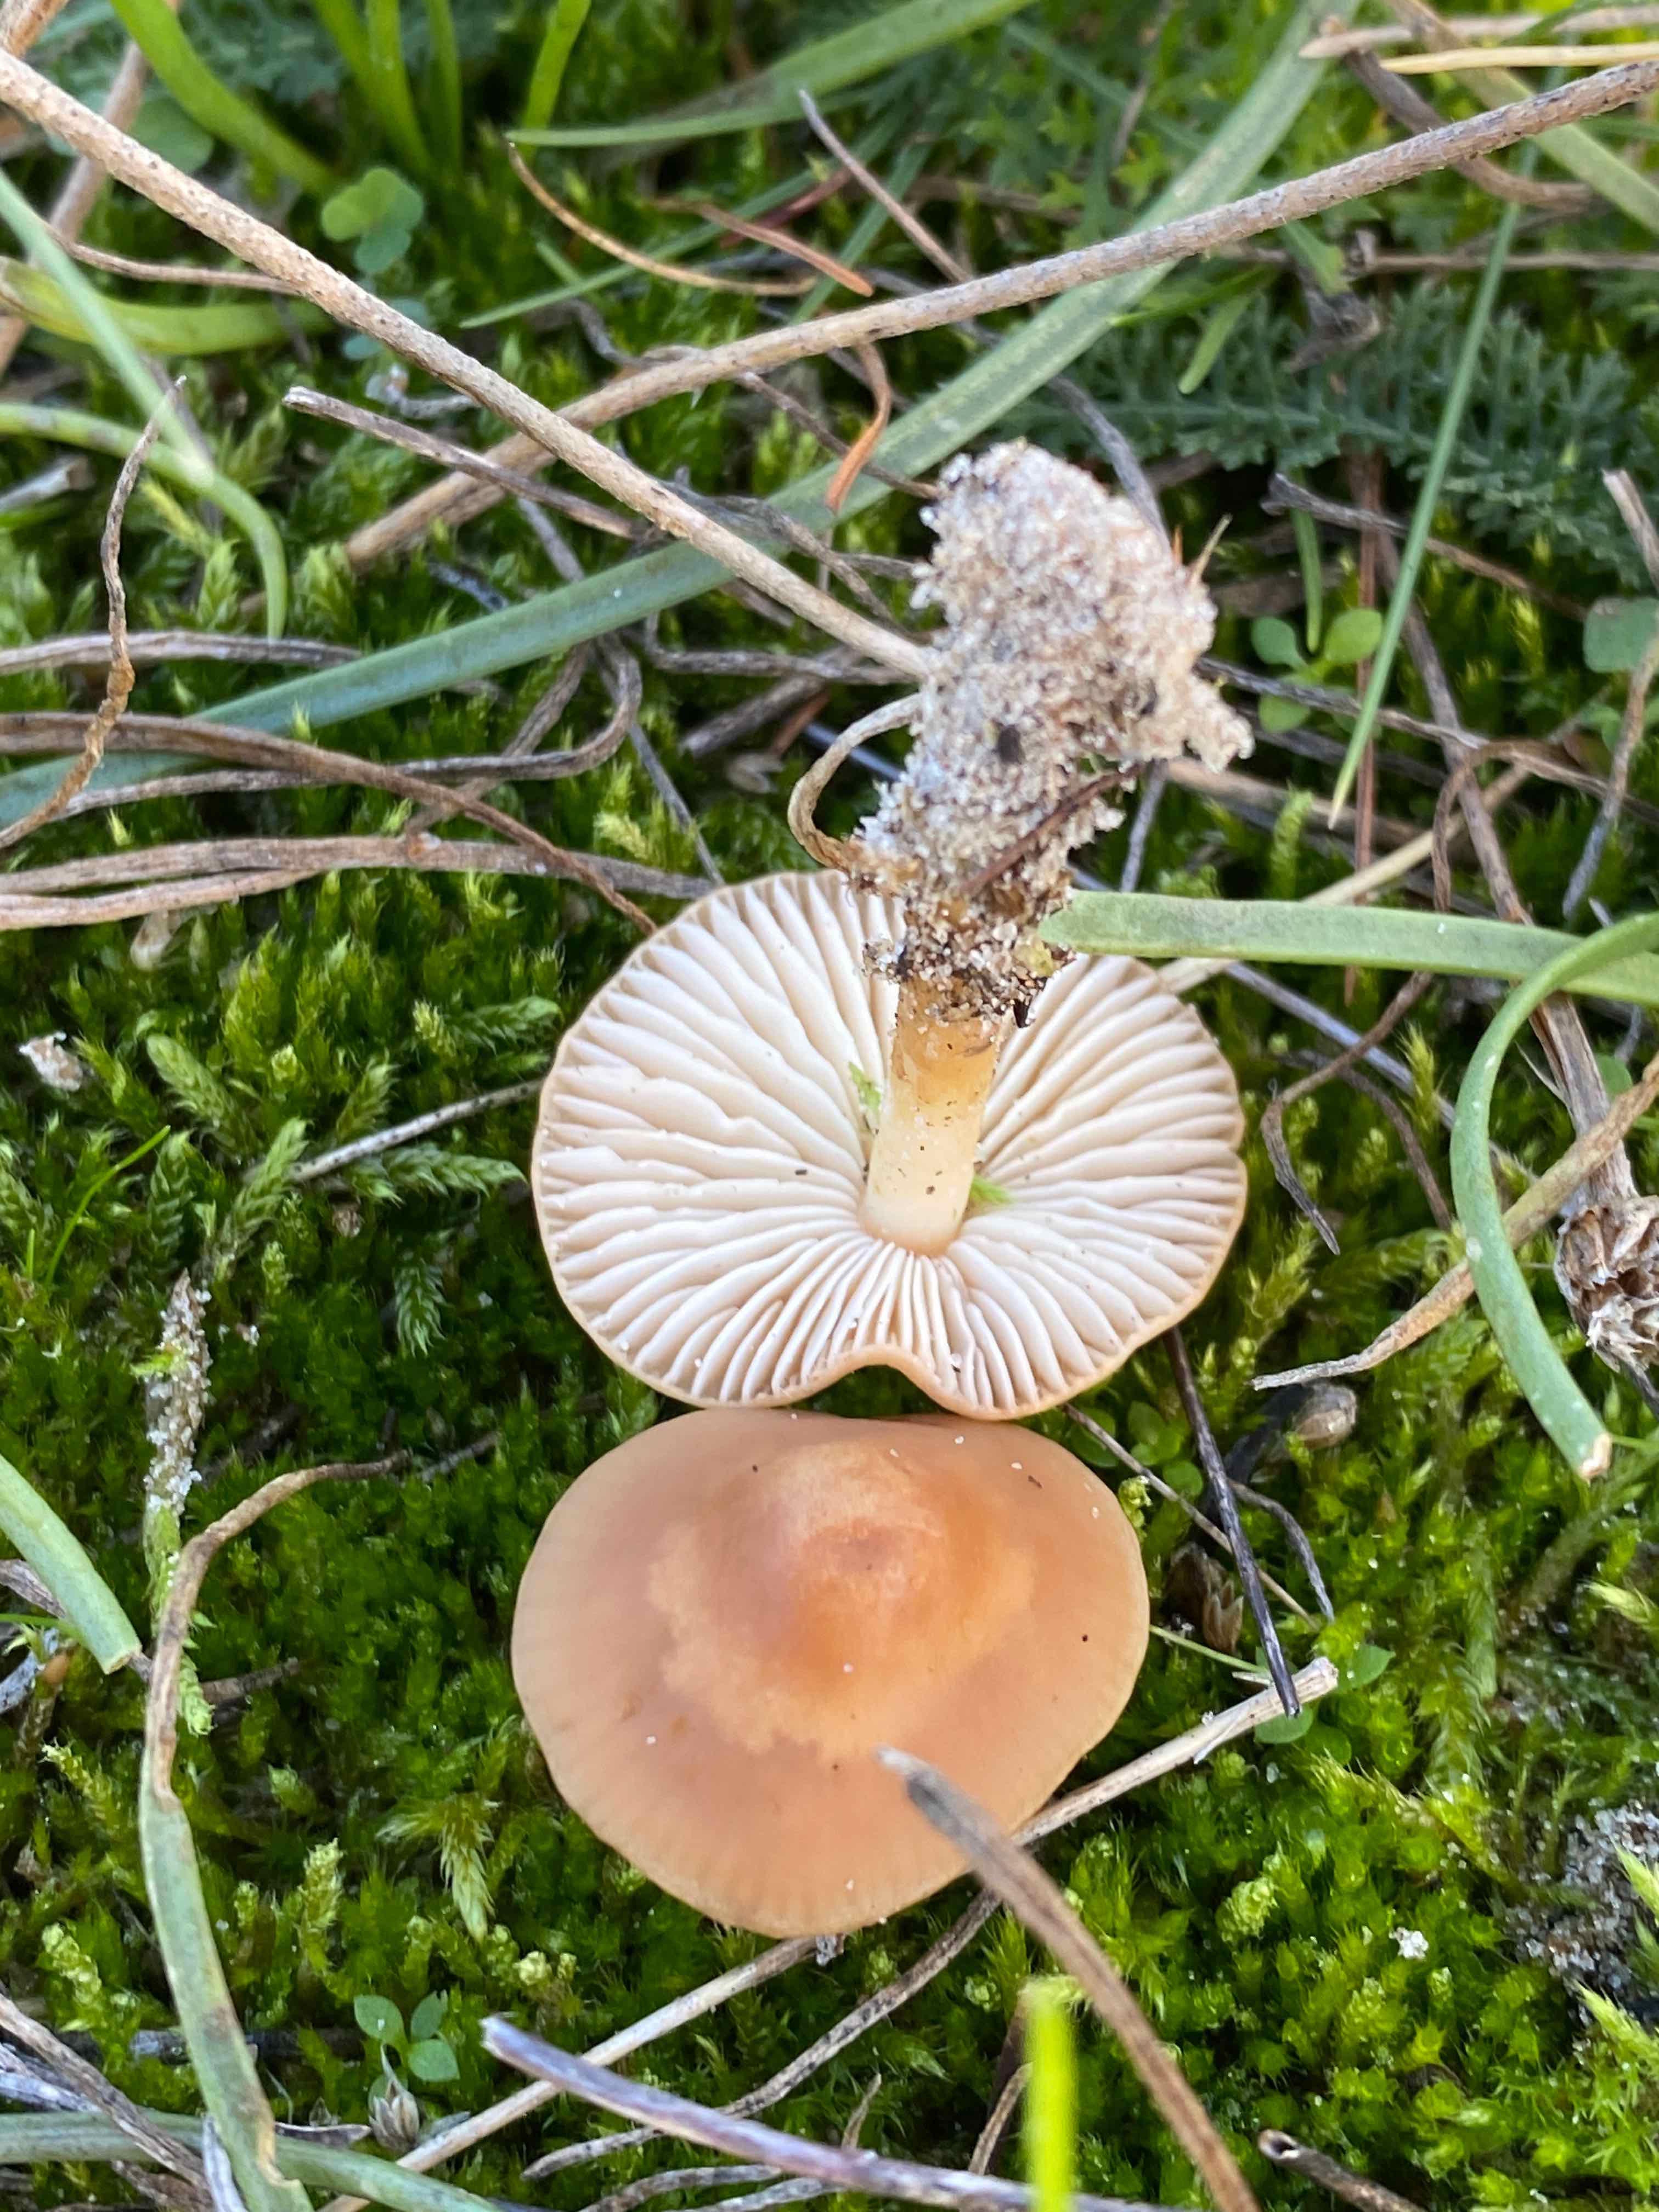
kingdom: Fungi
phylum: Basidiomycota
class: Agaricomycetes
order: Agaricales
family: Marasmiaceae
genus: Marasmius
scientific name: Marasmius oreades
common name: elledans-bruskhat
